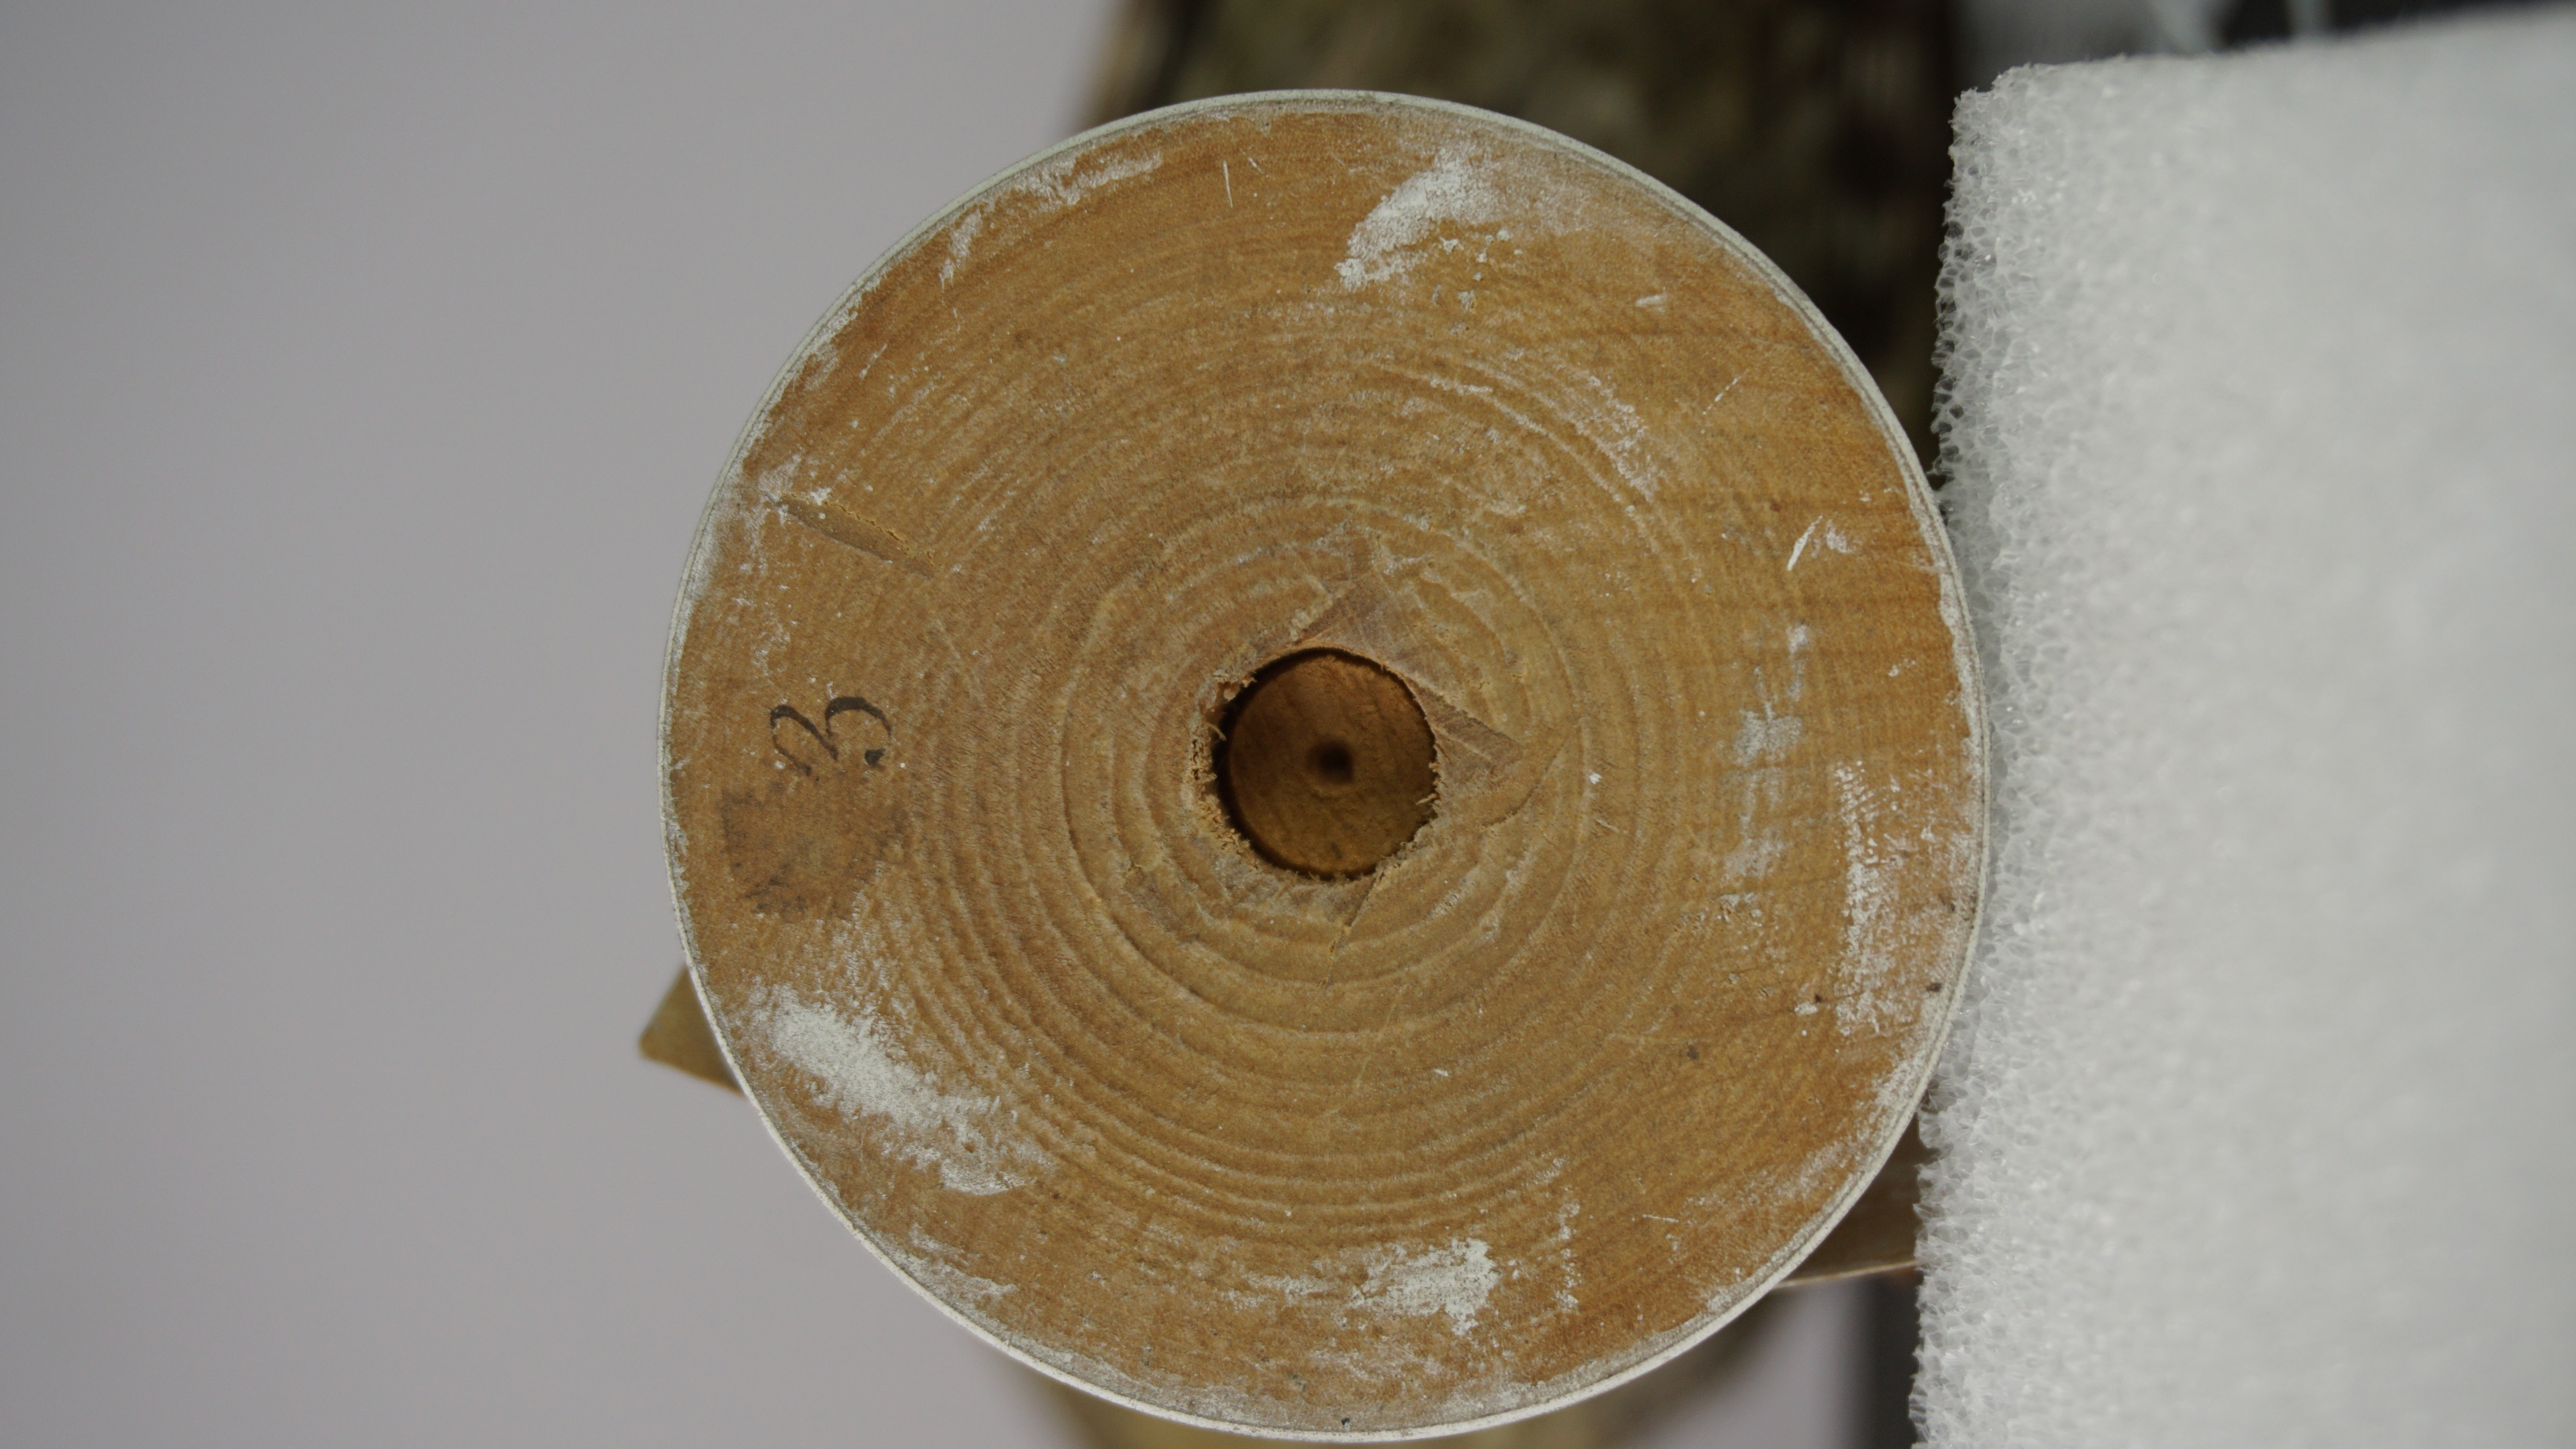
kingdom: Animalia
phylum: Chordata
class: Aves
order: Piciformes
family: Picidae
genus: Picus
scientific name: Picus squamatus
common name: Scaly-bellied woodpecker
